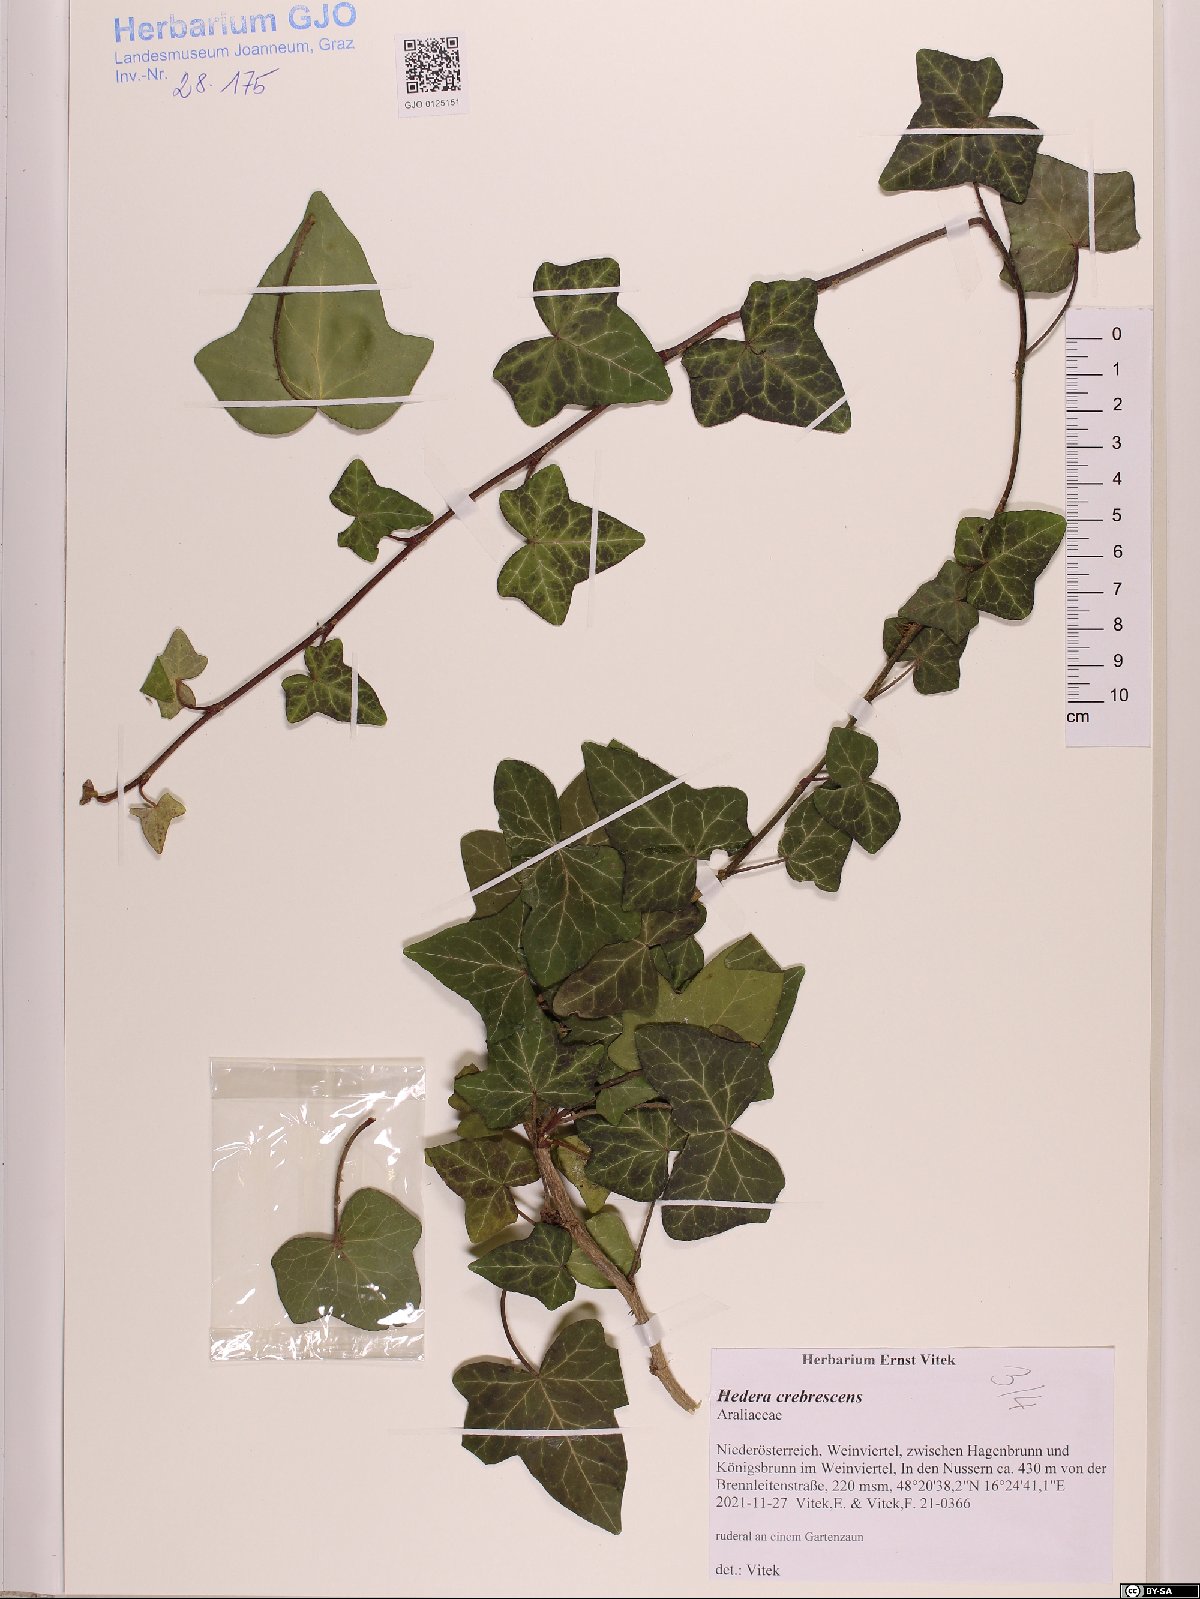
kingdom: Plantae
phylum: Tracheophyta
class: Magnoliopsida
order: Apiales
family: Araliaceae
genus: Hedera
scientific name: Hedera crebrescens
